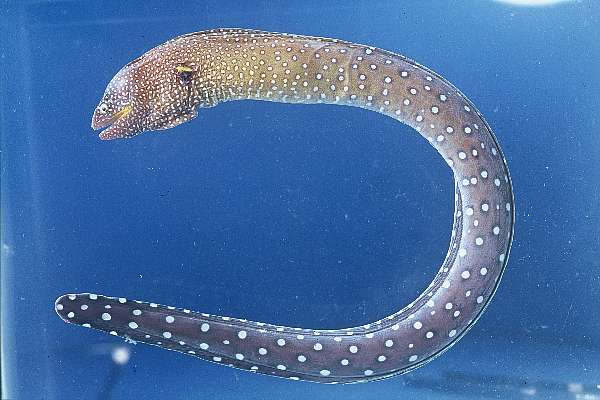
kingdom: Animalia
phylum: Chordata
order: Anguilliformes
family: Muraenidae
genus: Gymnothorax
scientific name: Gymnothorax nudivomer
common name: Yellowmouth moray
